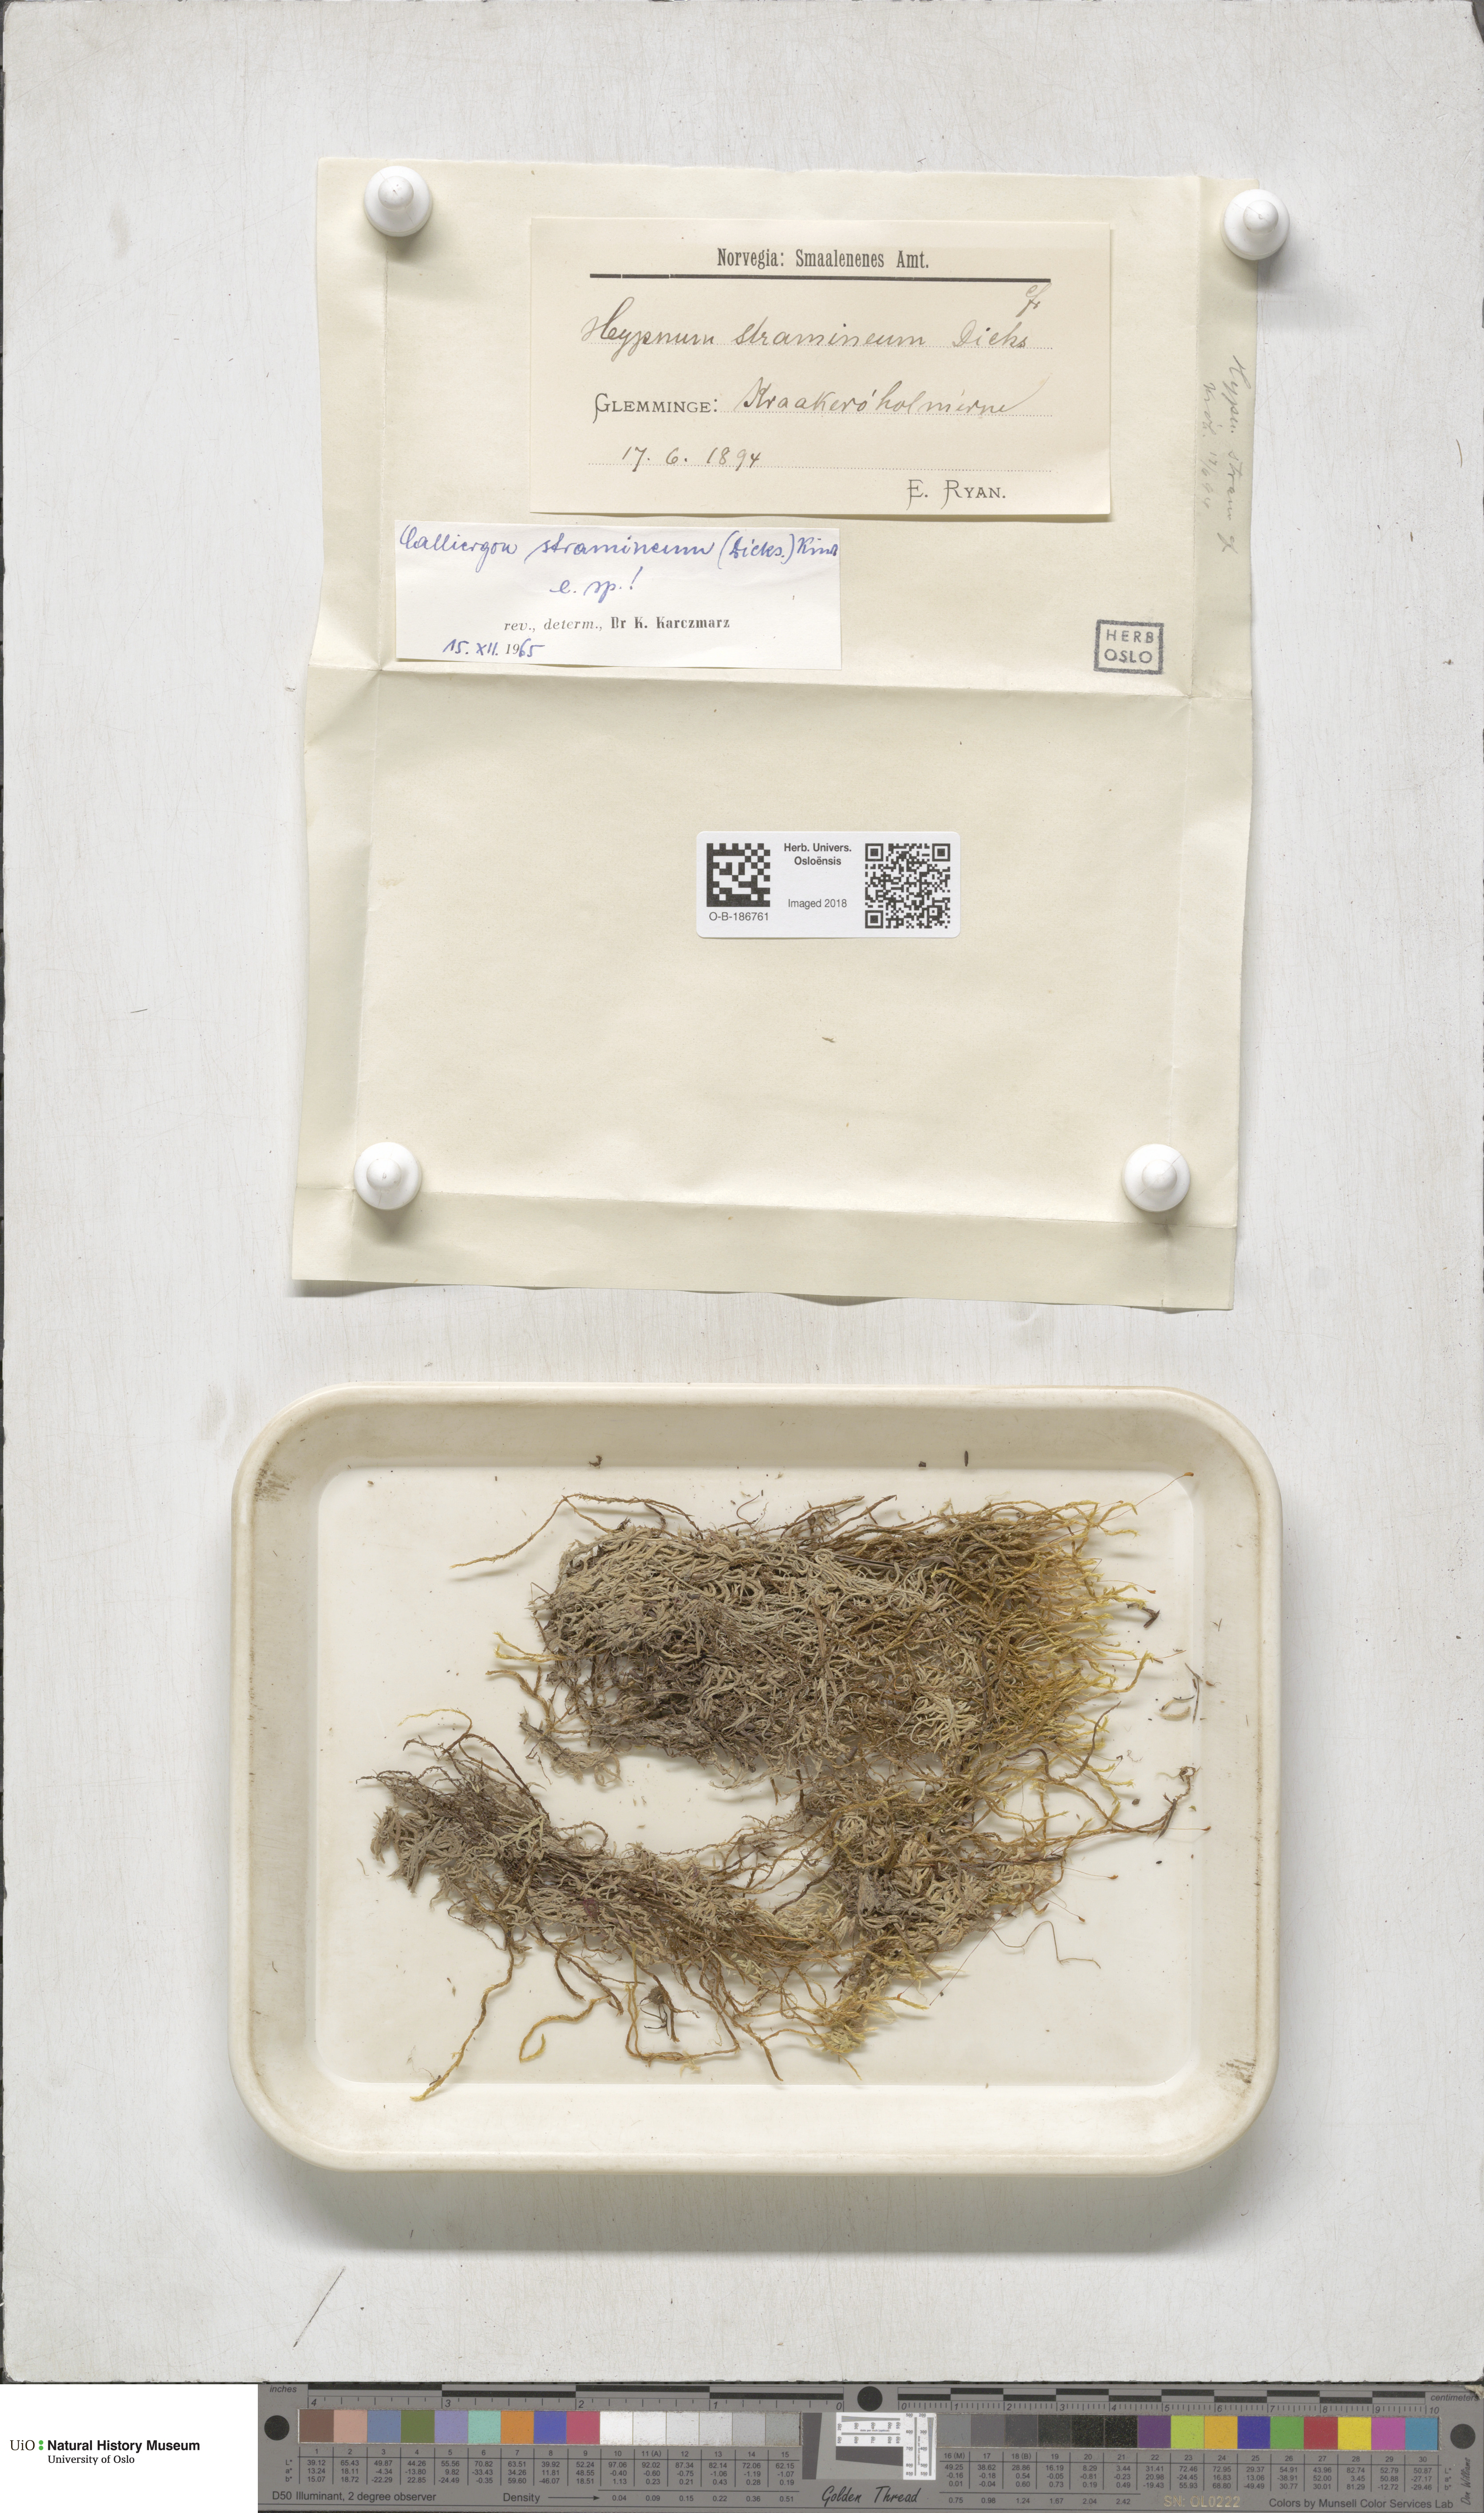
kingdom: Plantae
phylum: Bryophyta
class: Bryopsida
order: Hypnales
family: Calliergonaceae
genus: Straminergon
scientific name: Straminergon stramineum
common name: Straw moss
